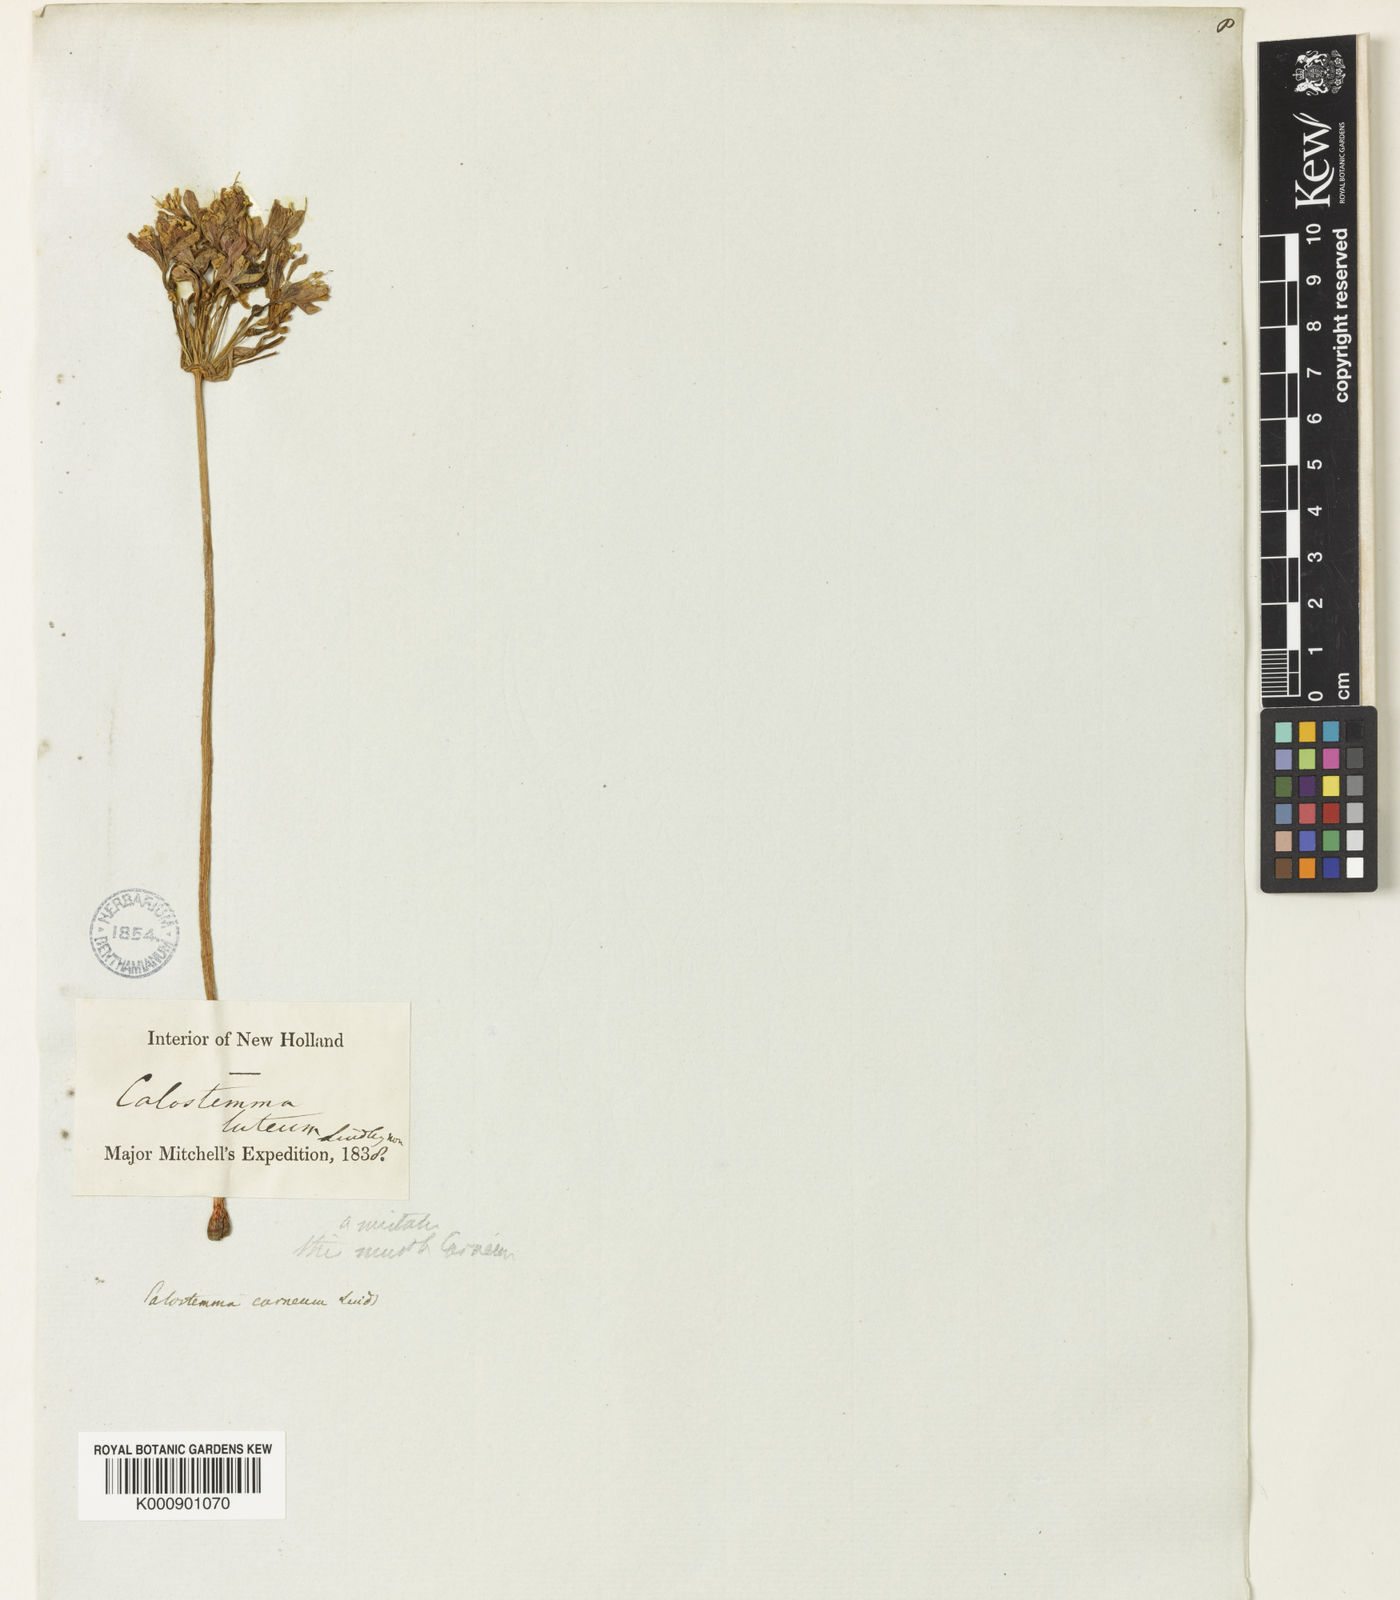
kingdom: Plantae
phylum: Tracheophyta
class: Liliopsida
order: Asparagales
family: Amaryllidaceae
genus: Calostemma
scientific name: Calostemma purpureum
